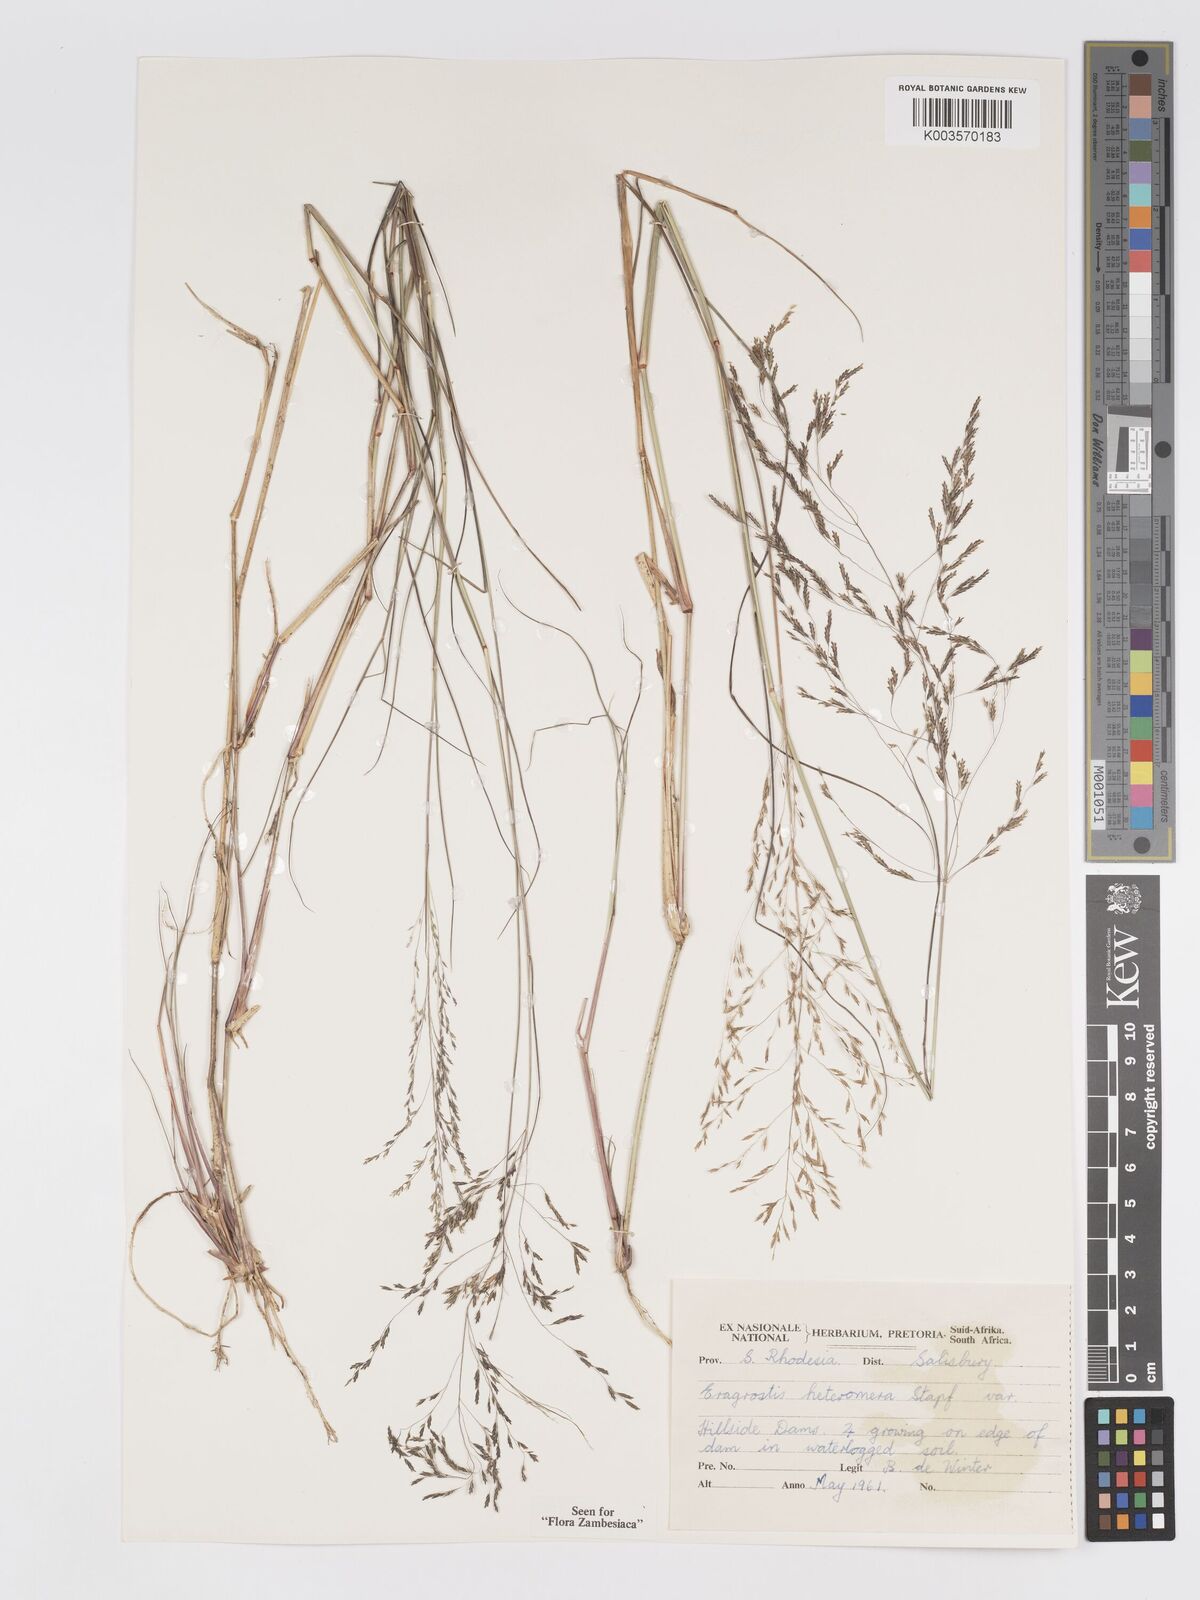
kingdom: Plantae
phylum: Tracheophyta
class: Liliopsida
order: Poales
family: Poaceae
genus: Eragrostis
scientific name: Eragrostis heteromera
